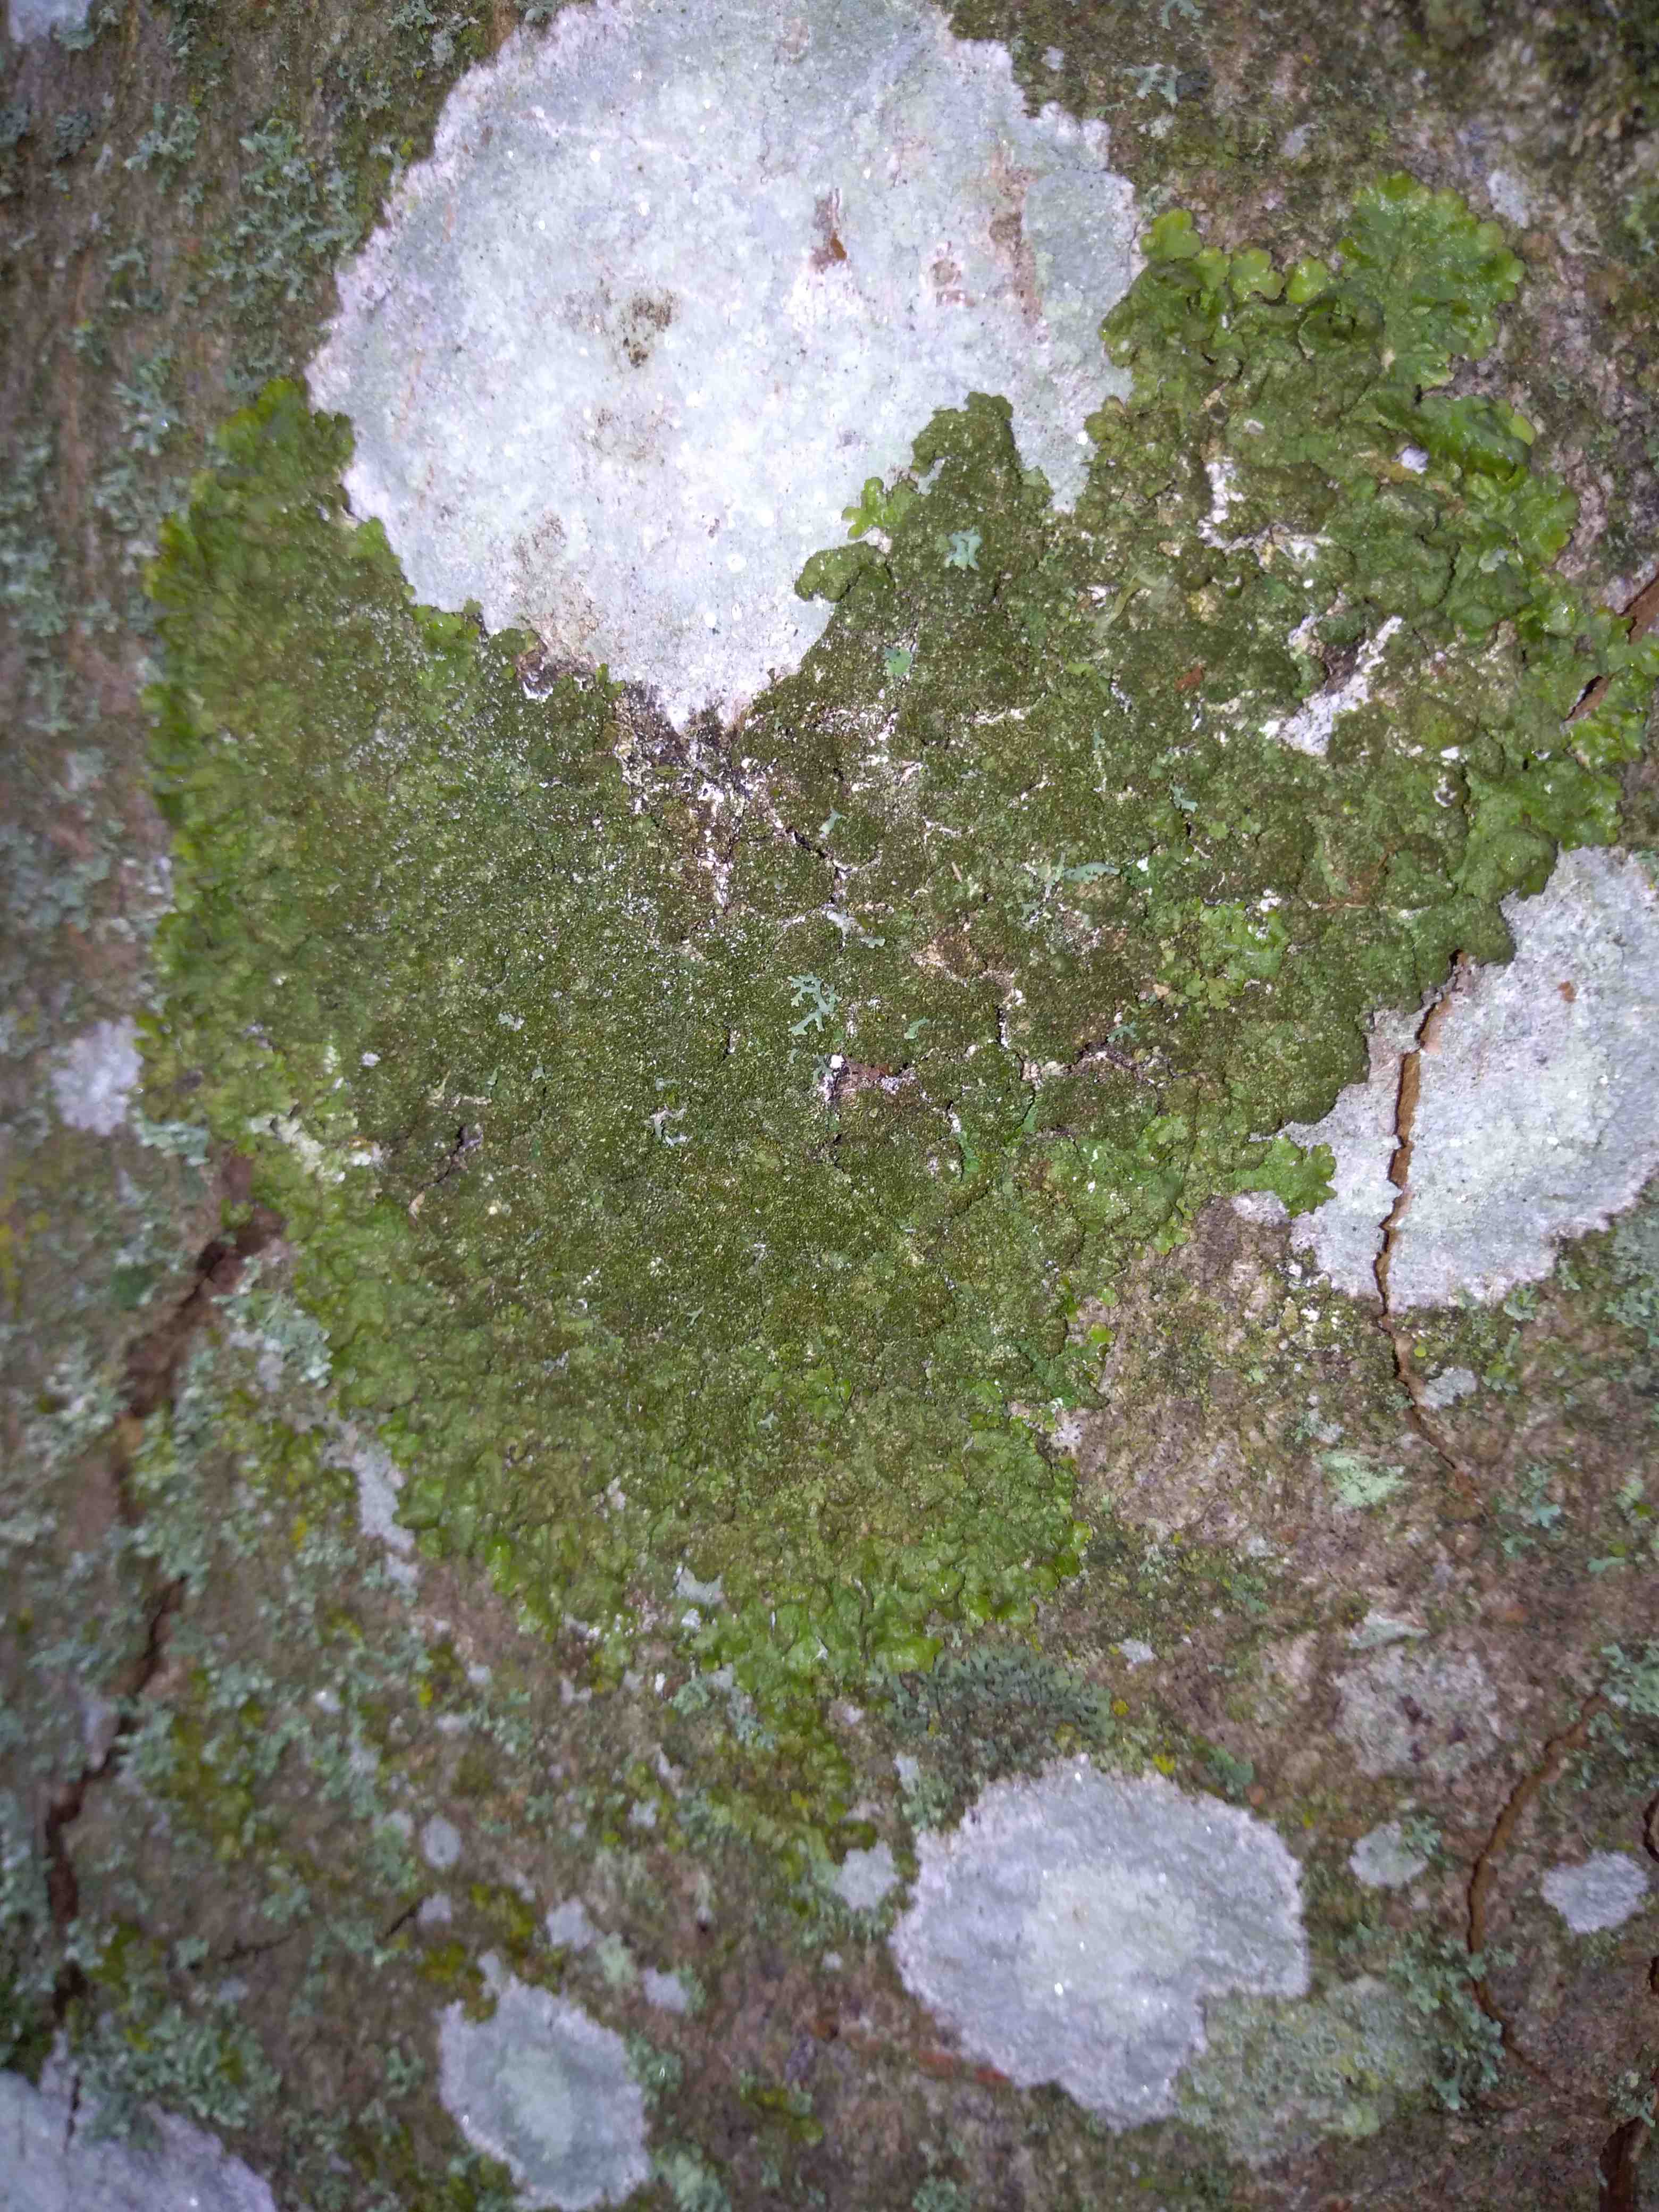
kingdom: Fungi
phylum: Ascomycota
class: Lecanoromycetes
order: Lecanorales
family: Parmeliaceae
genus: Melanelixia
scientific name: Melanelixia glabratula
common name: glinsende skållav
